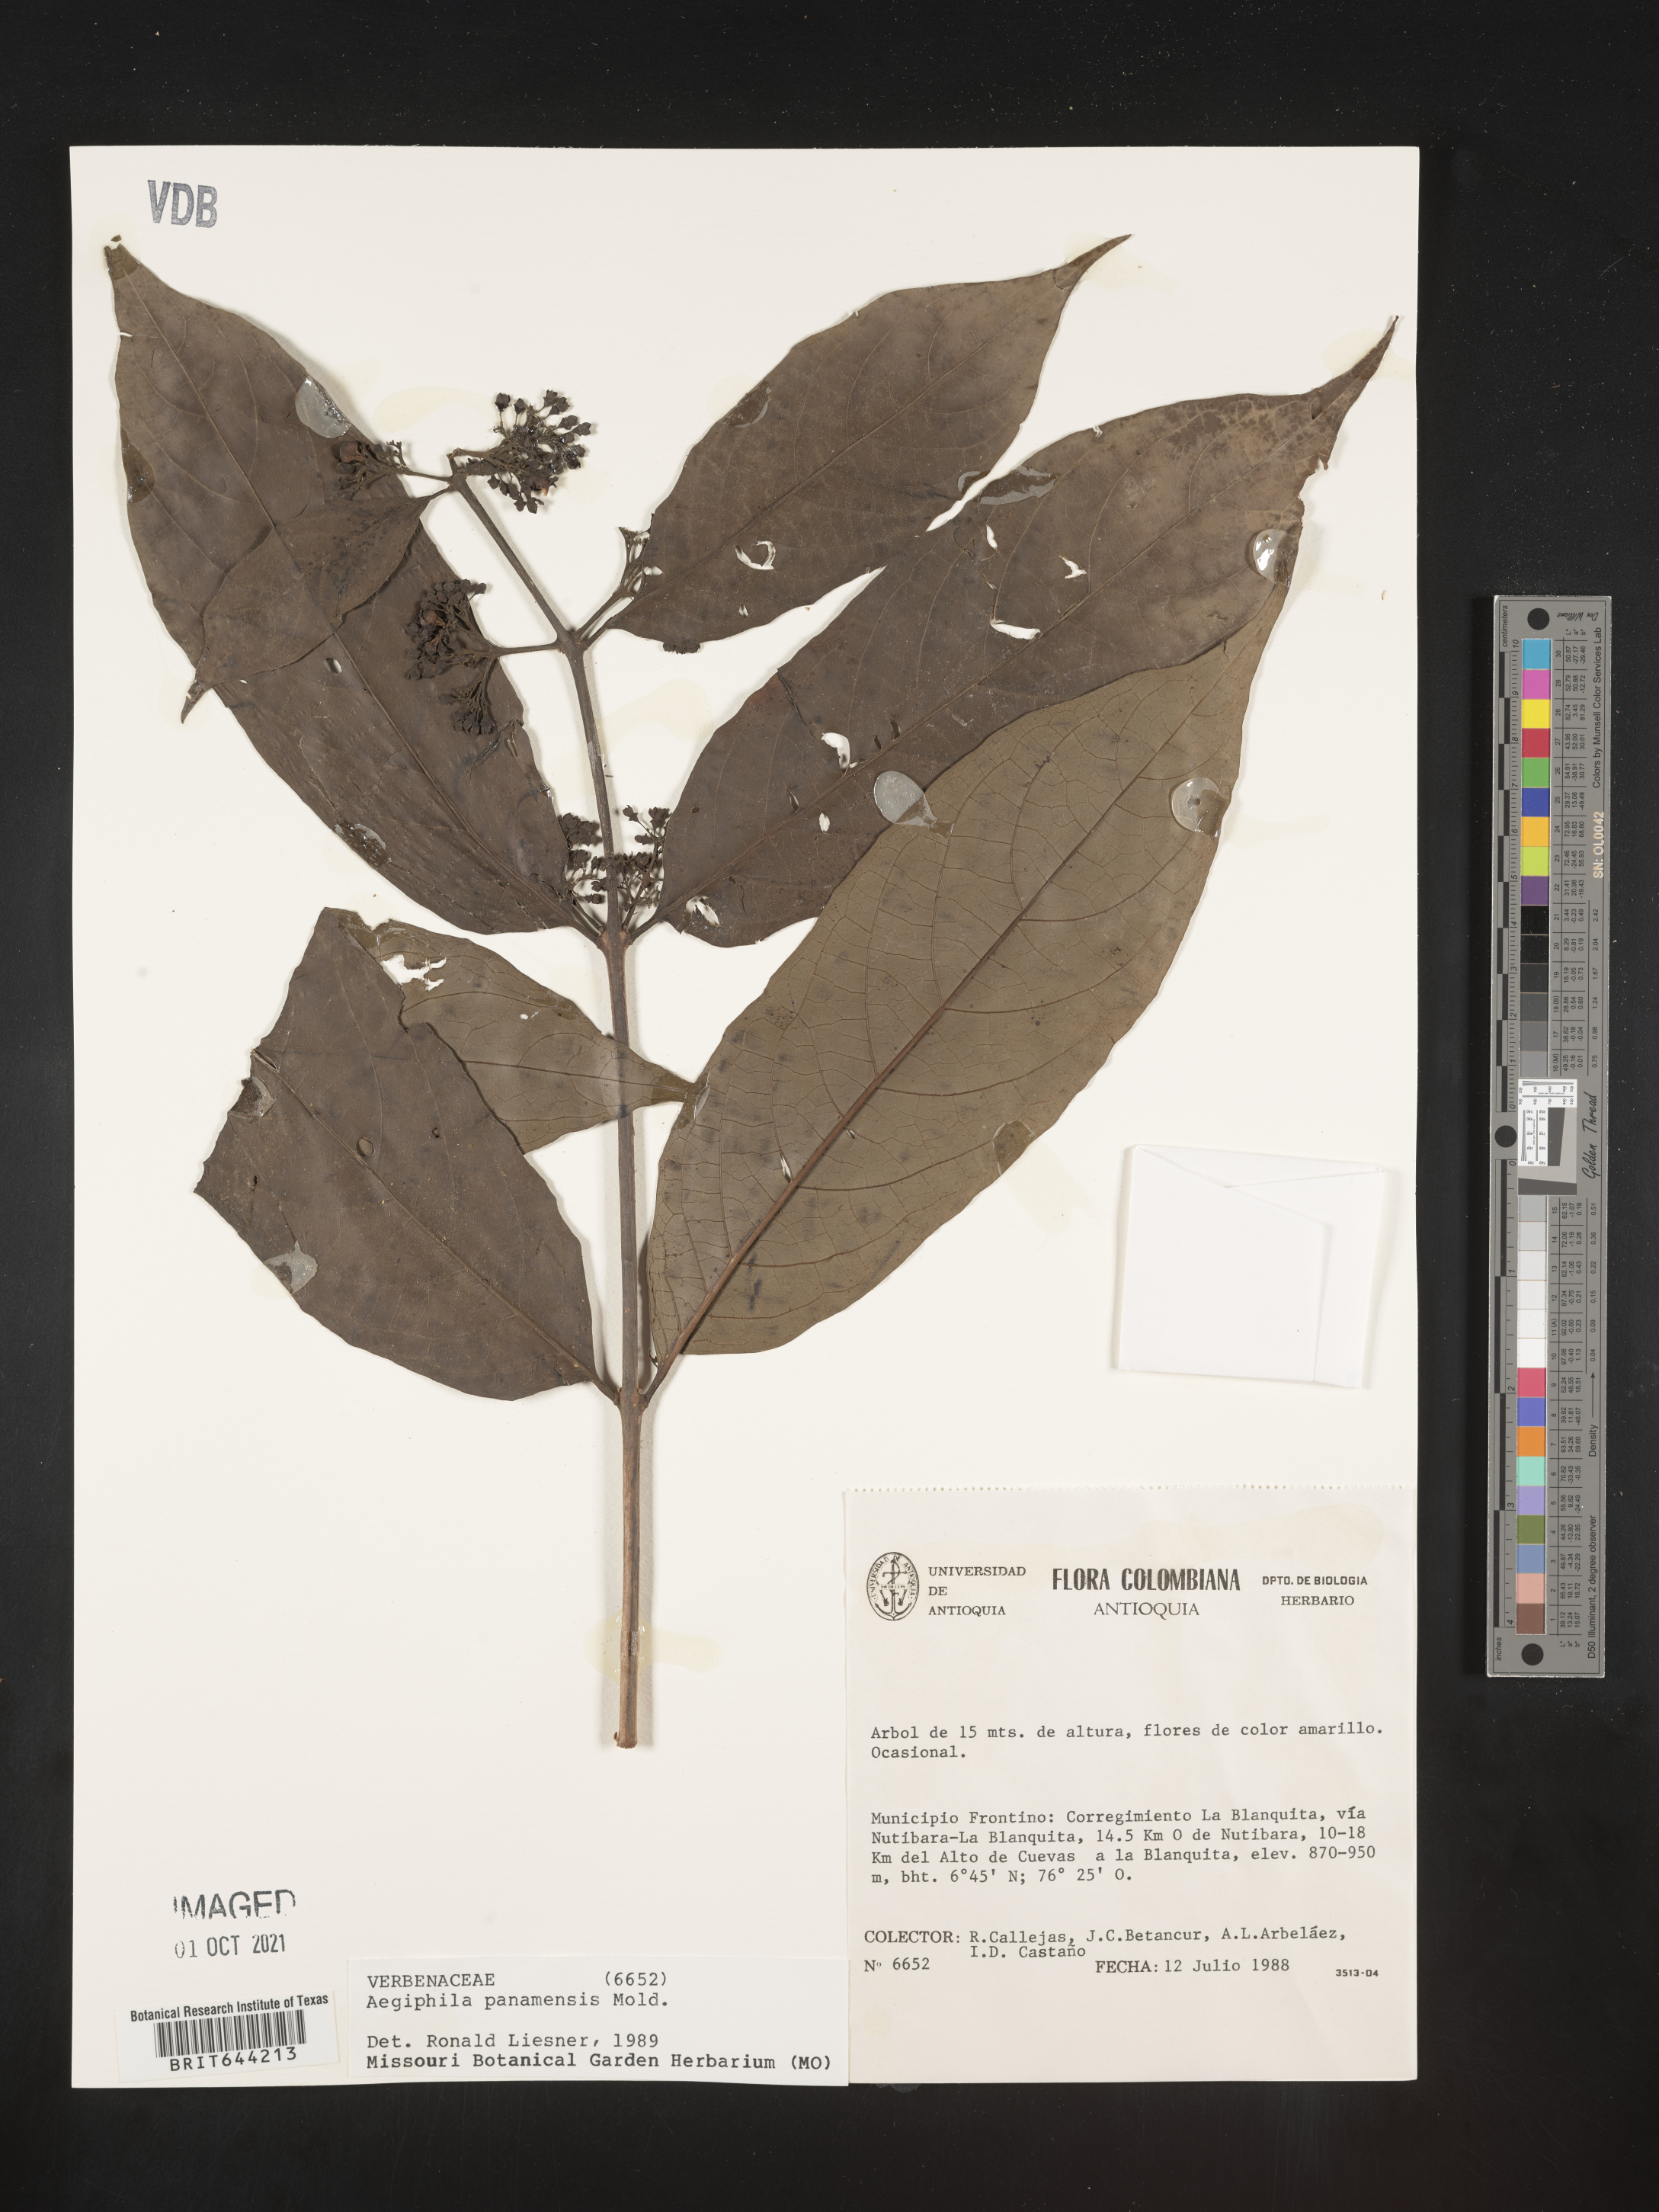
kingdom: Plantae
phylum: Tracheophyta
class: Magnoliopsida
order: Lamiales
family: Lamiaceae
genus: Aegiphila
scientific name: Aegiphila
